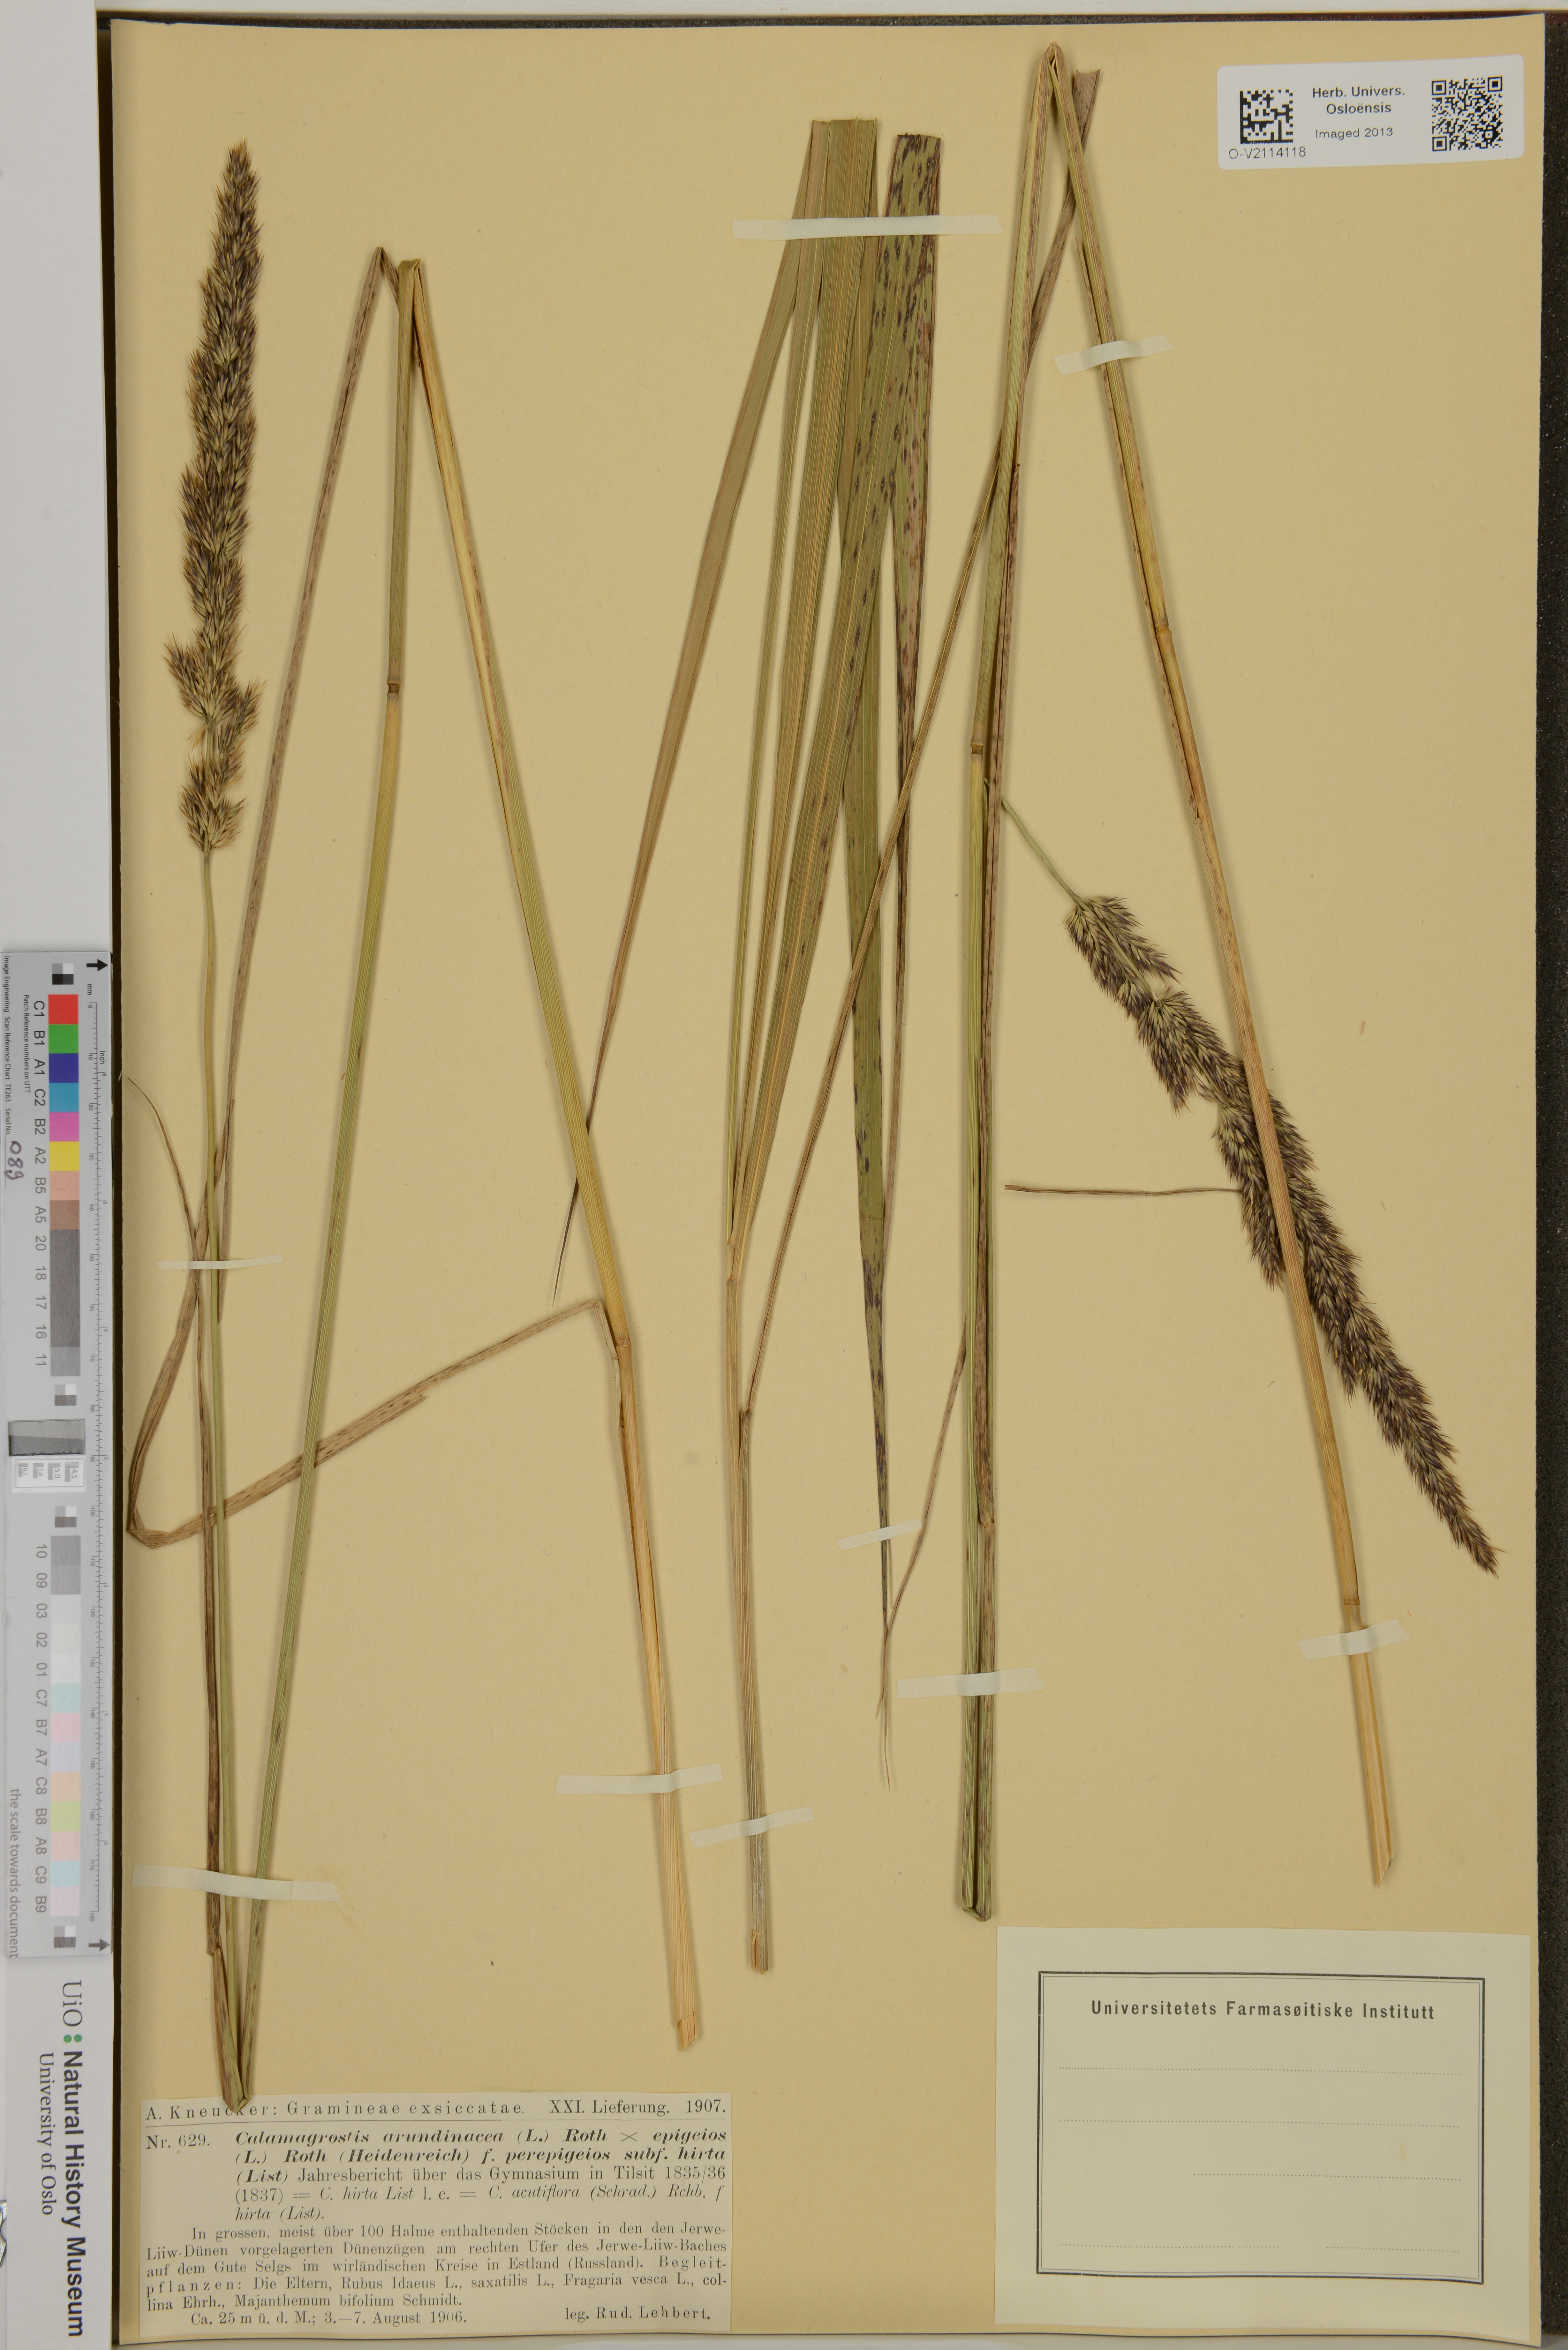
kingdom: Plantae
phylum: Tracheophyta
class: Liliopsida
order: Poales
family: Poaceae
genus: Calamagrostis
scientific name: Calamagrostis arundinacea
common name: Metskastik
